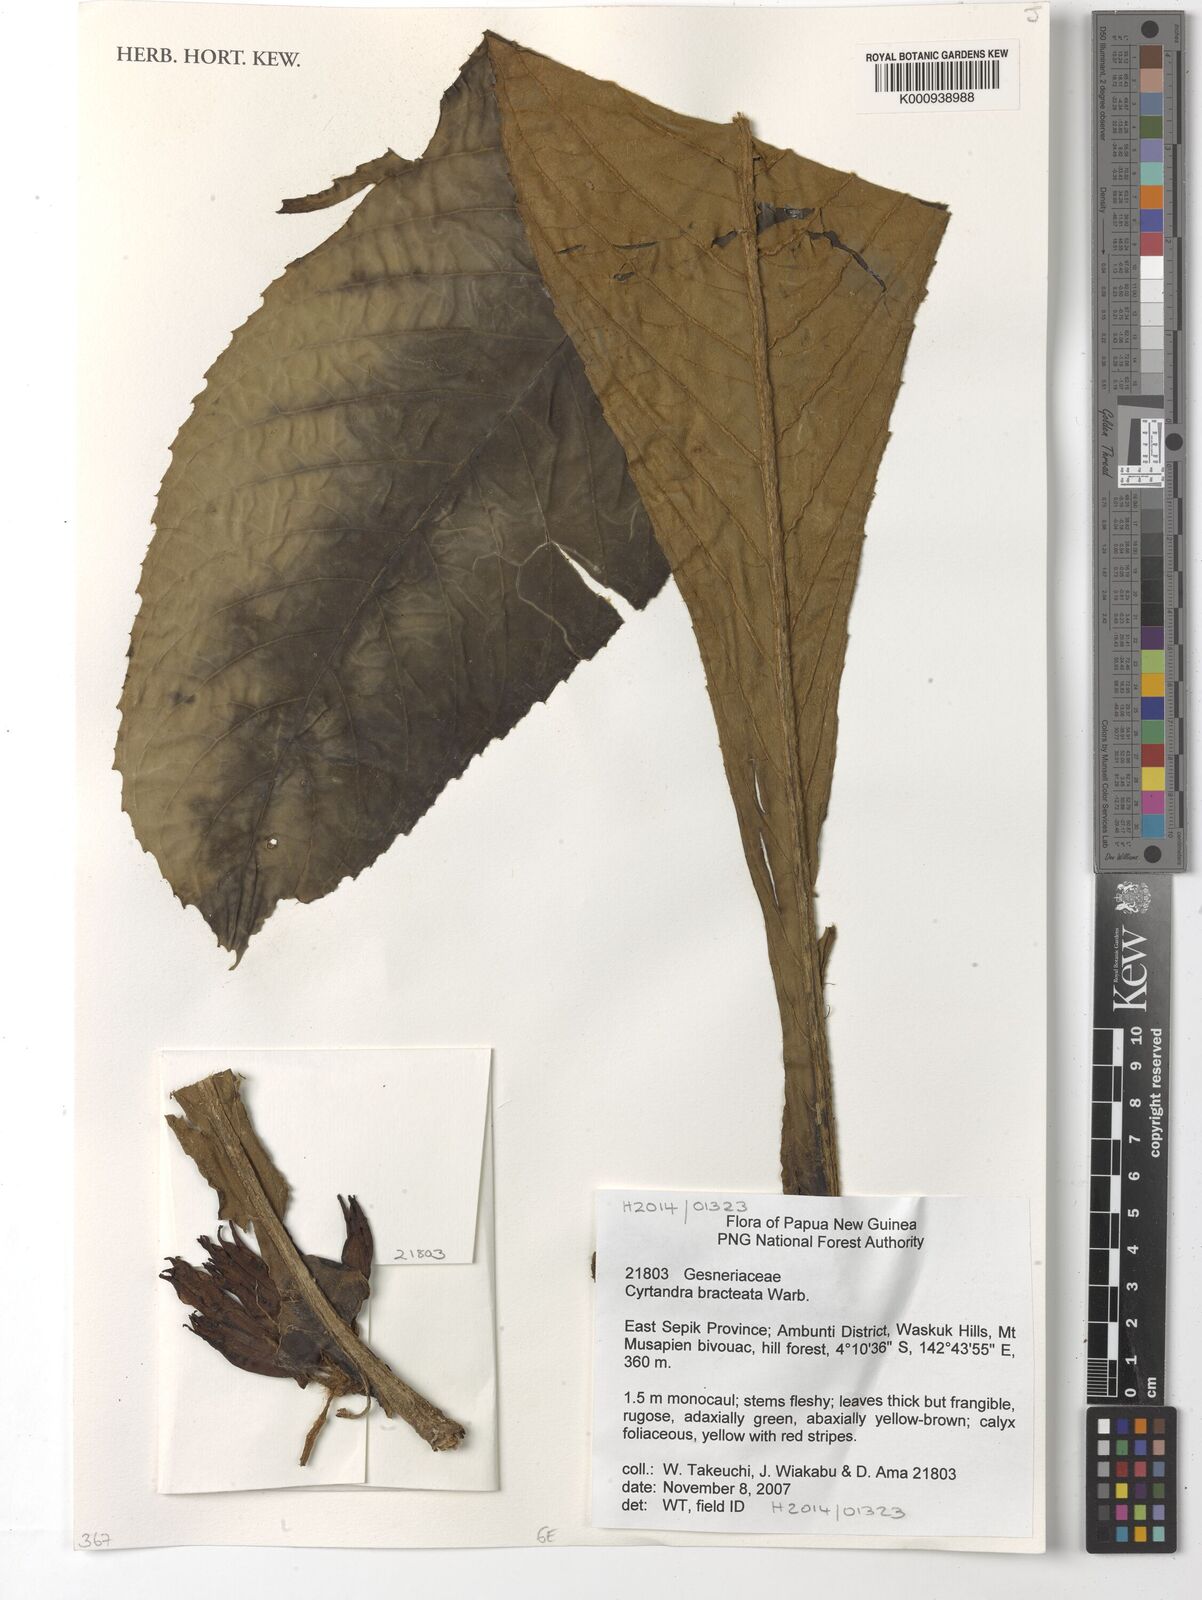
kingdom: Plantae
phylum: Tracheophyta
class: Magnoliopsida
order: Lamiales
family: Gesneriaceae
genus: Cyrtandra
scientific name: Cyrtandra bracteata
